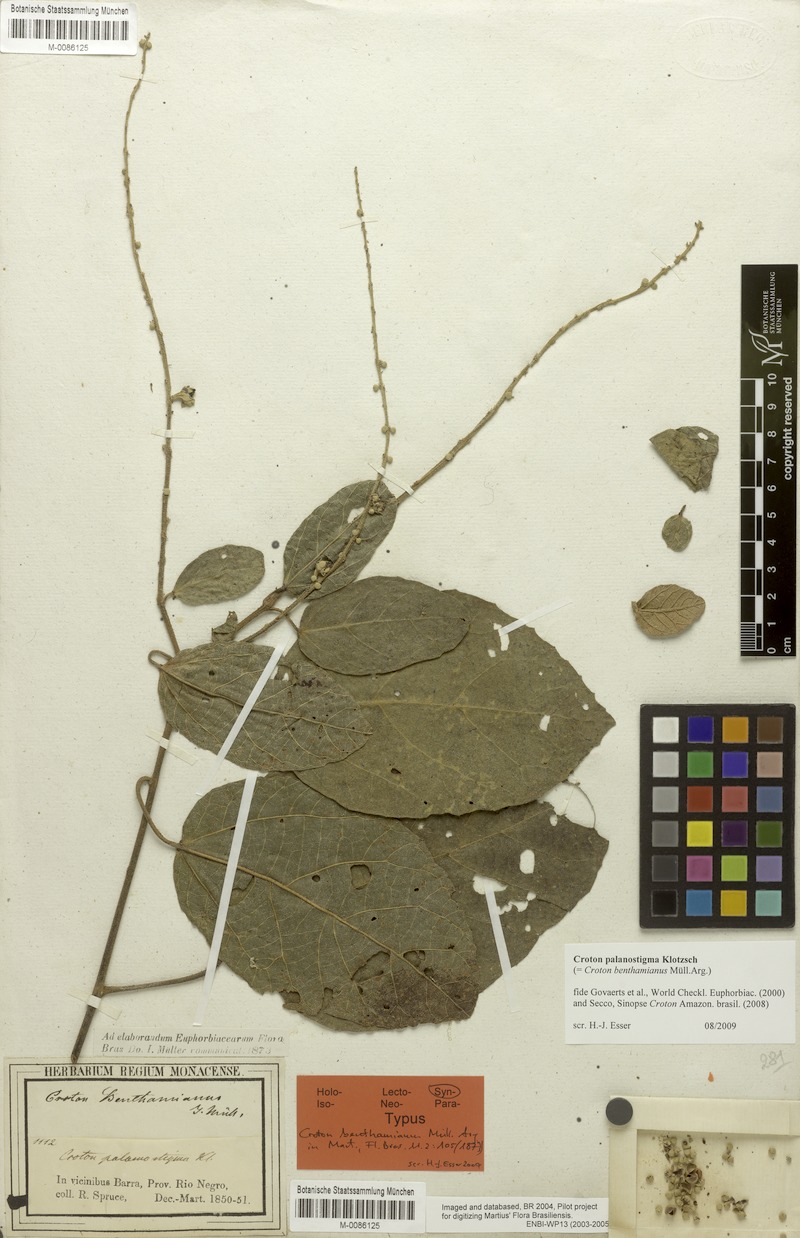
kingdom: Plantae
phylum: Tracheophyta
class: Magnoliopsida
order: Malpighiales
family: Euphorbiaceae
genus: Croton
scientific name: Croton palanostigma
